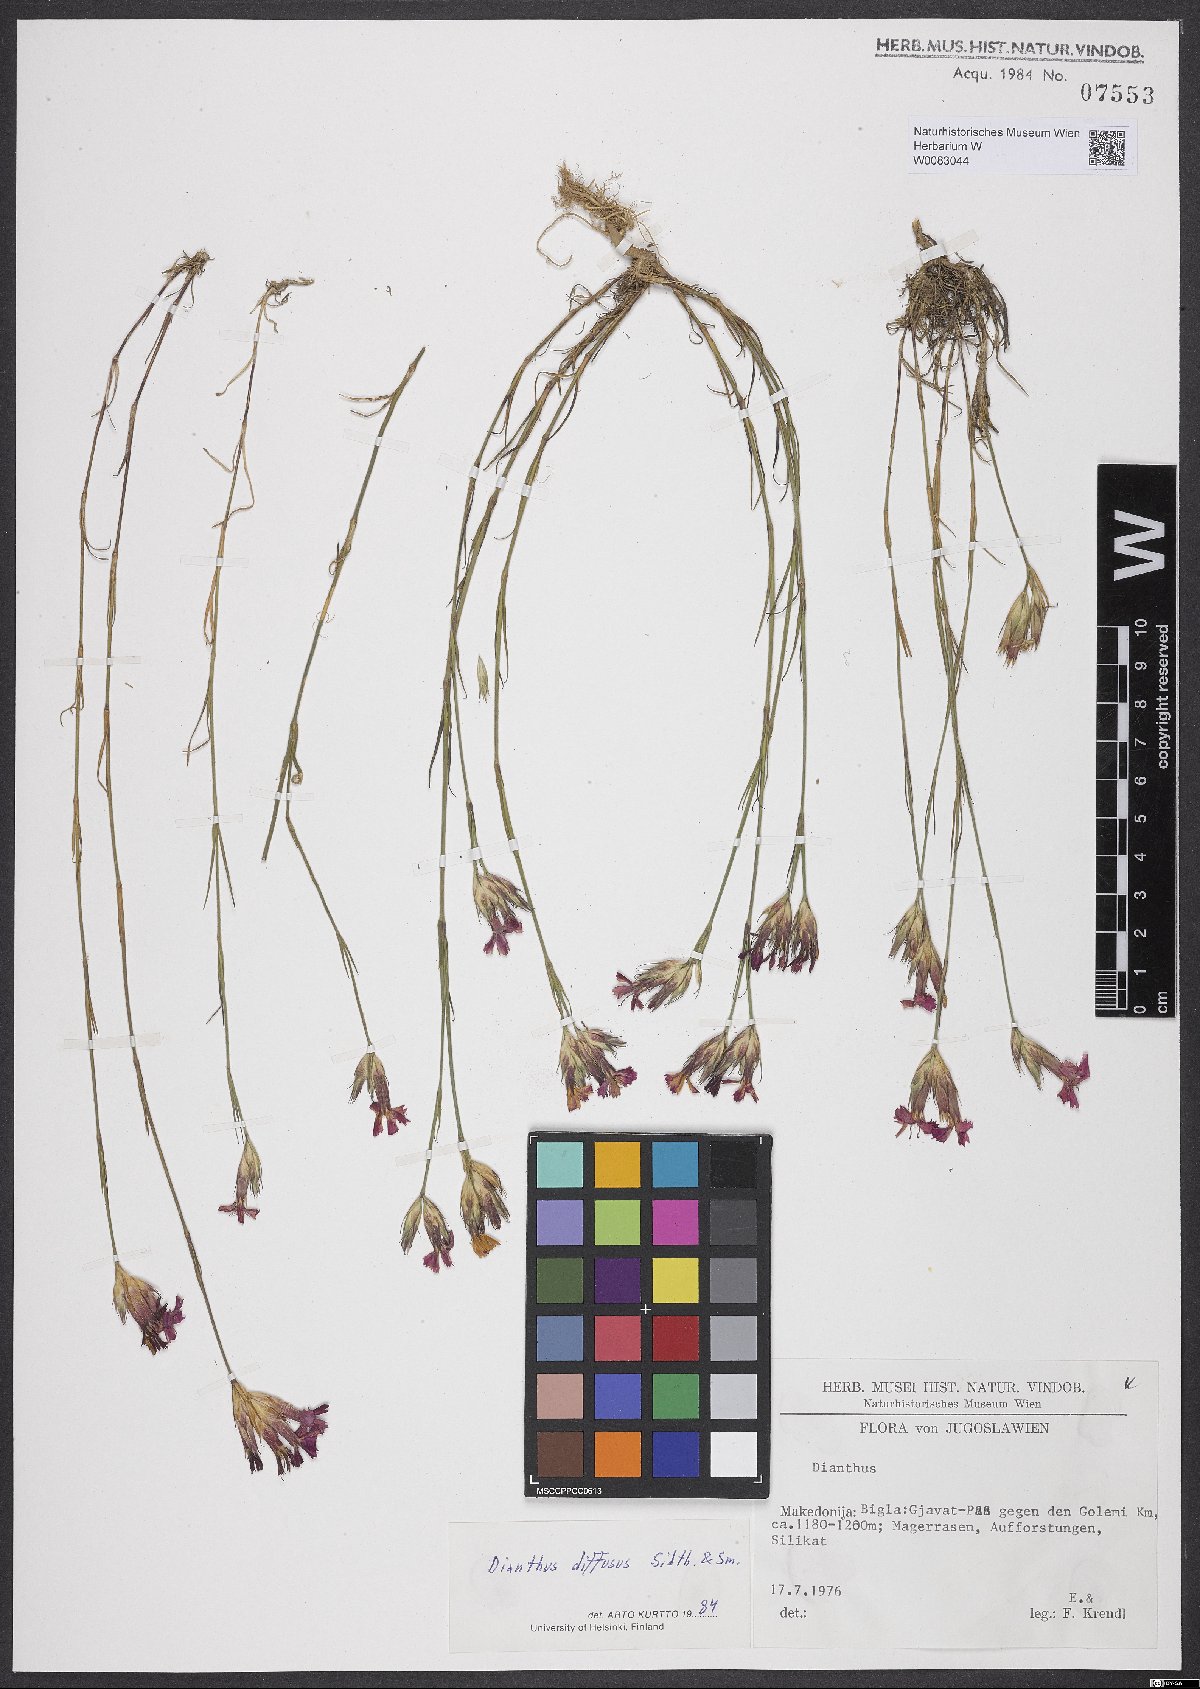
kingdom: Plantae
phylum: Tracheophyta
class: Magnoliopsida
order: Caryophyllales
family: Caryophyllaceae
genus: Dianthus
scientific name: Dianthus diffusus
